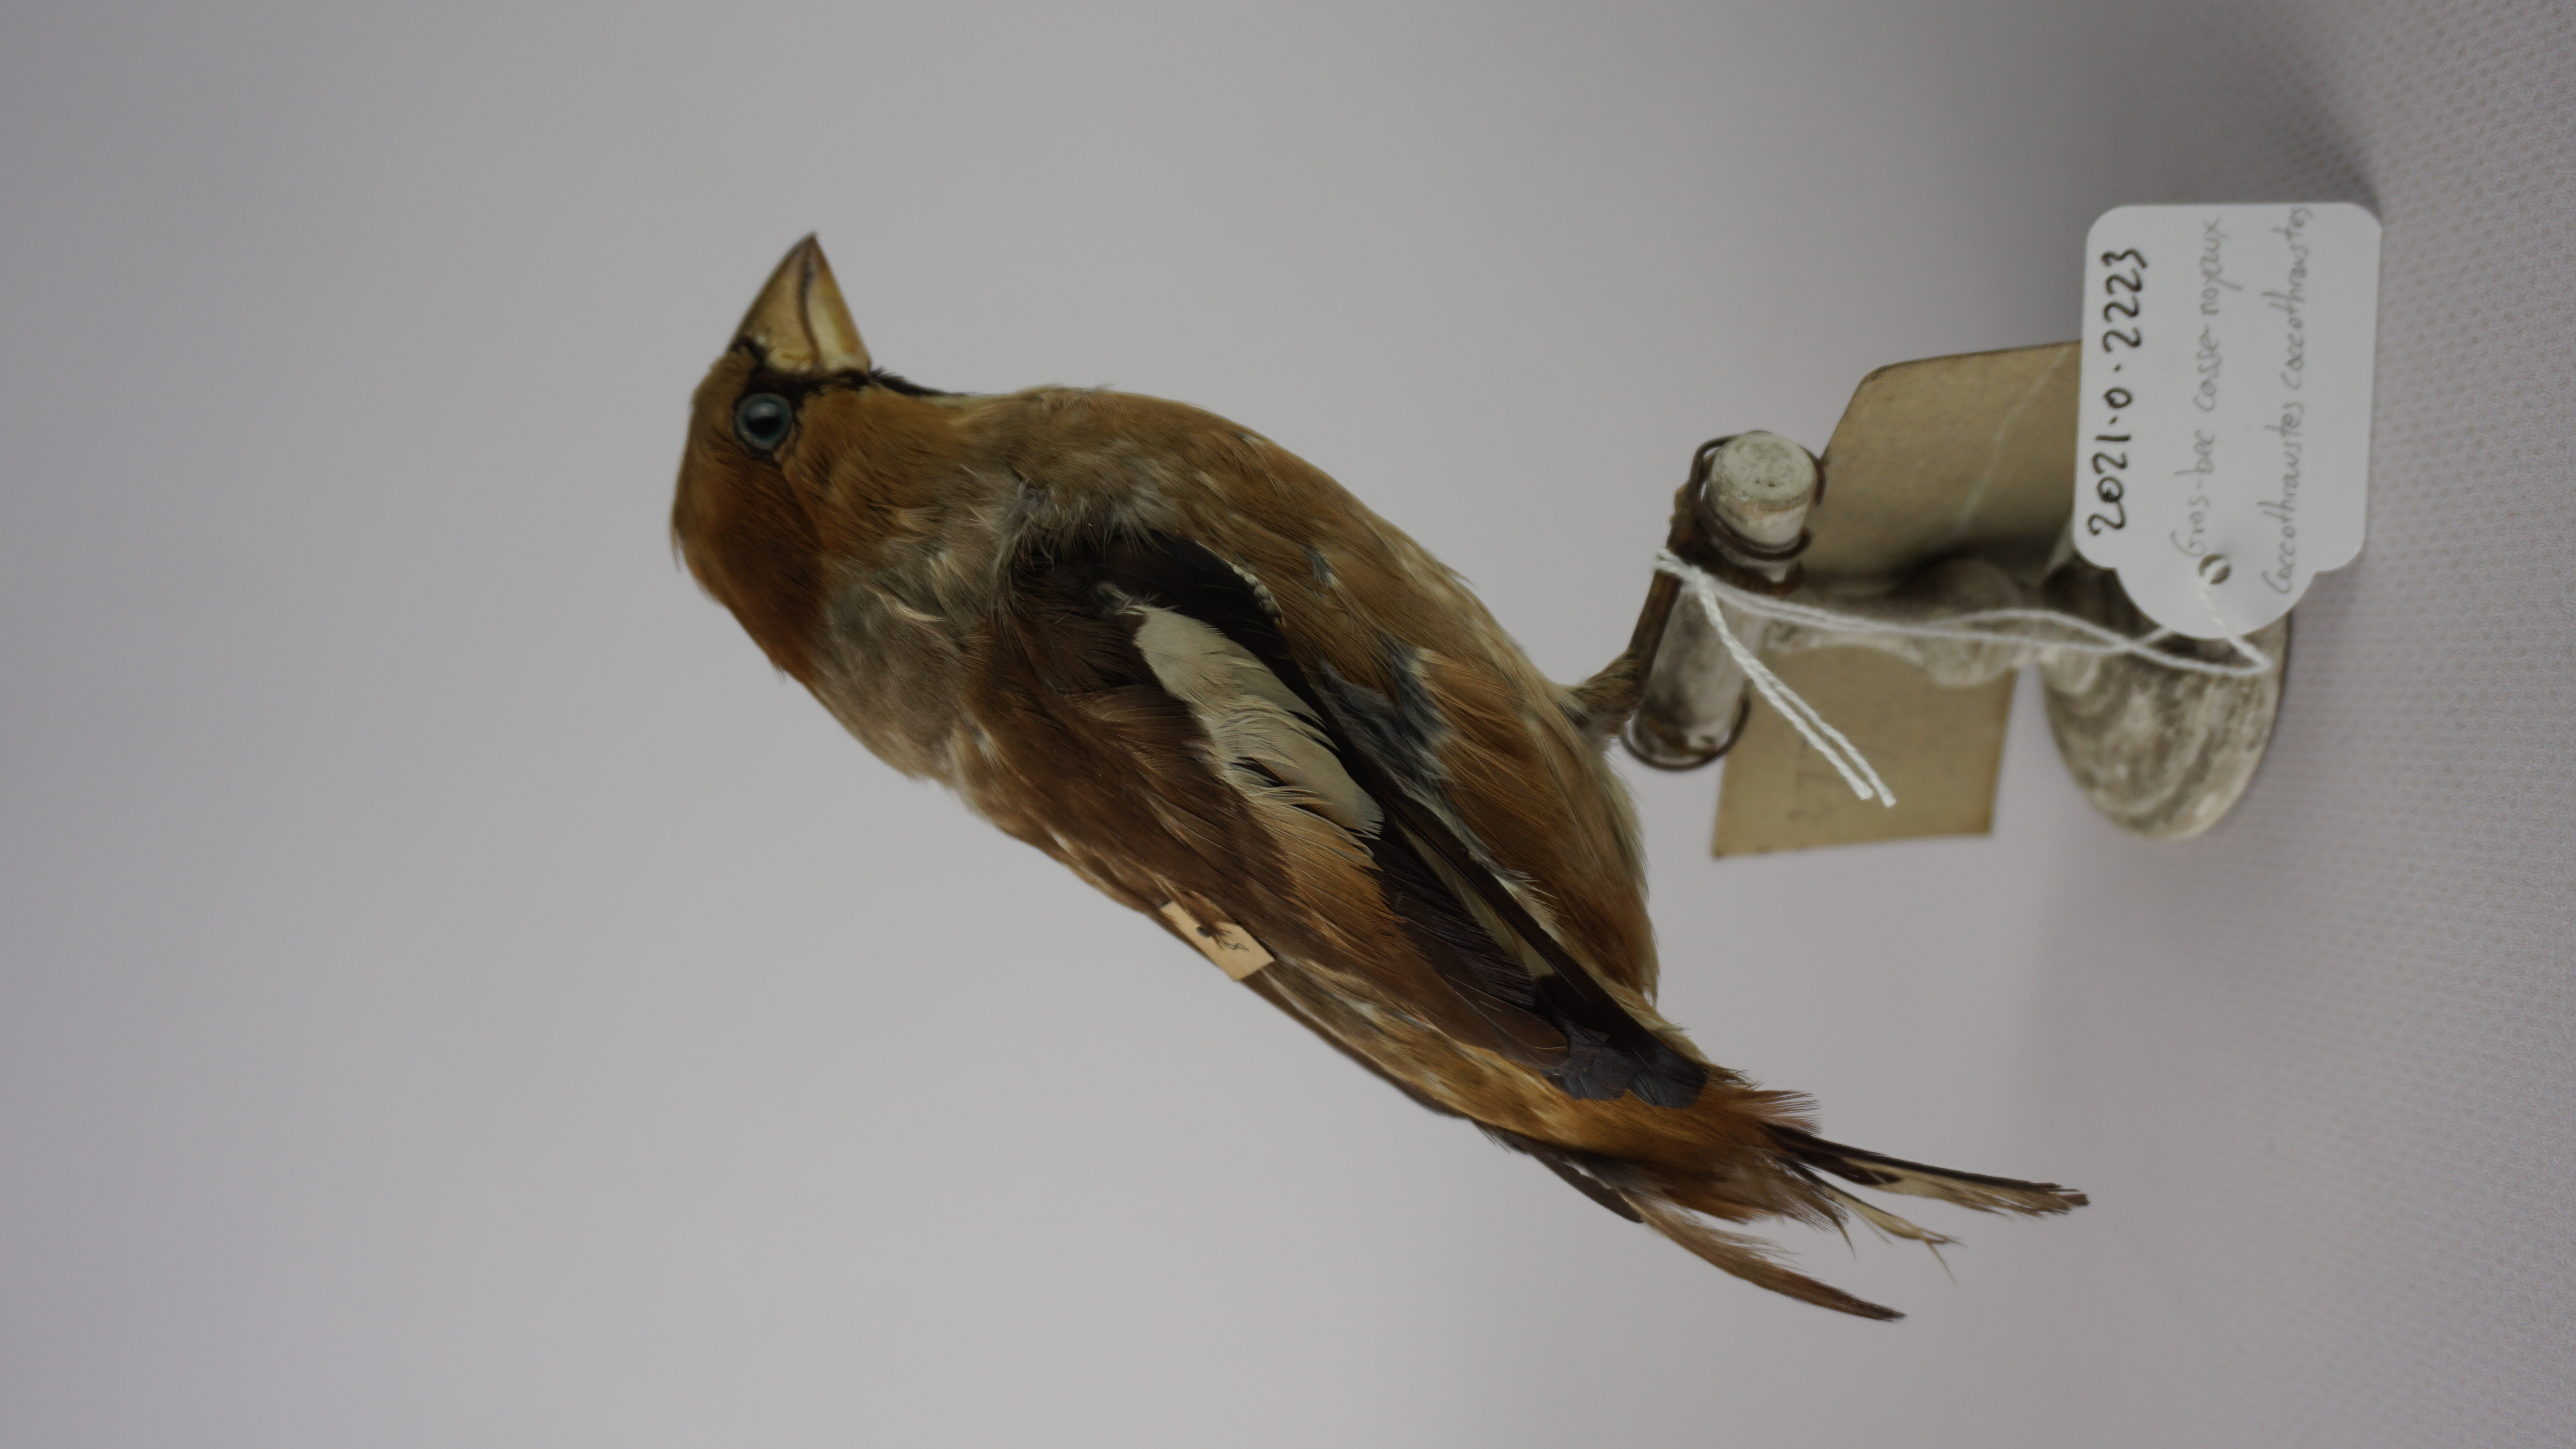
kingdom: Animalia
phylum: Chordata
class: Aves
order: Passeriformes
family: Fringillidae
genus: Coccothraustes
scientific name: Coccothraustes coccothraustes
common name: Hawfinch
